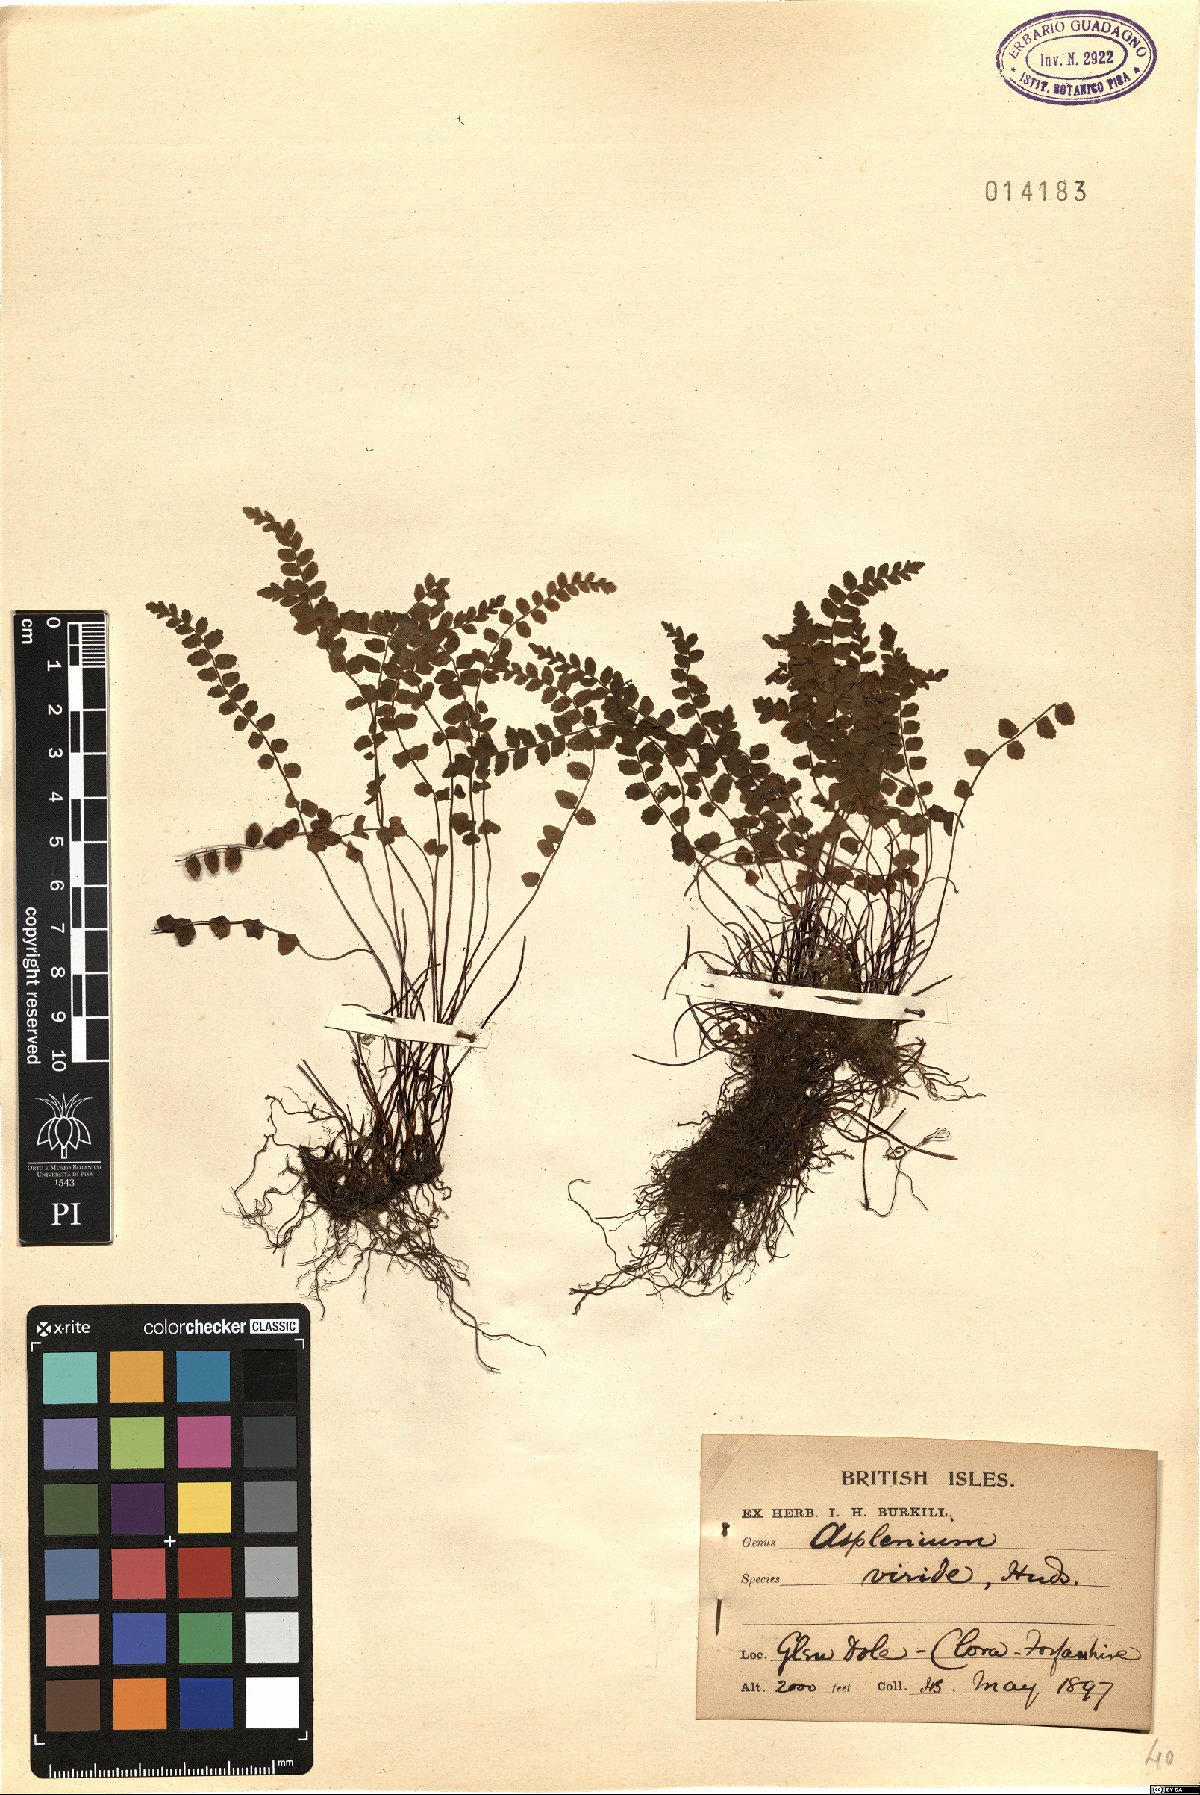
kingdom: Plantae
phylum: Tracheophyta
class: Polypodiopsida
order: Polypodiales
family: Aspleniaceae
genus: Asplenium
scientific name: Asplenium viride
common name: Green spleenwort
